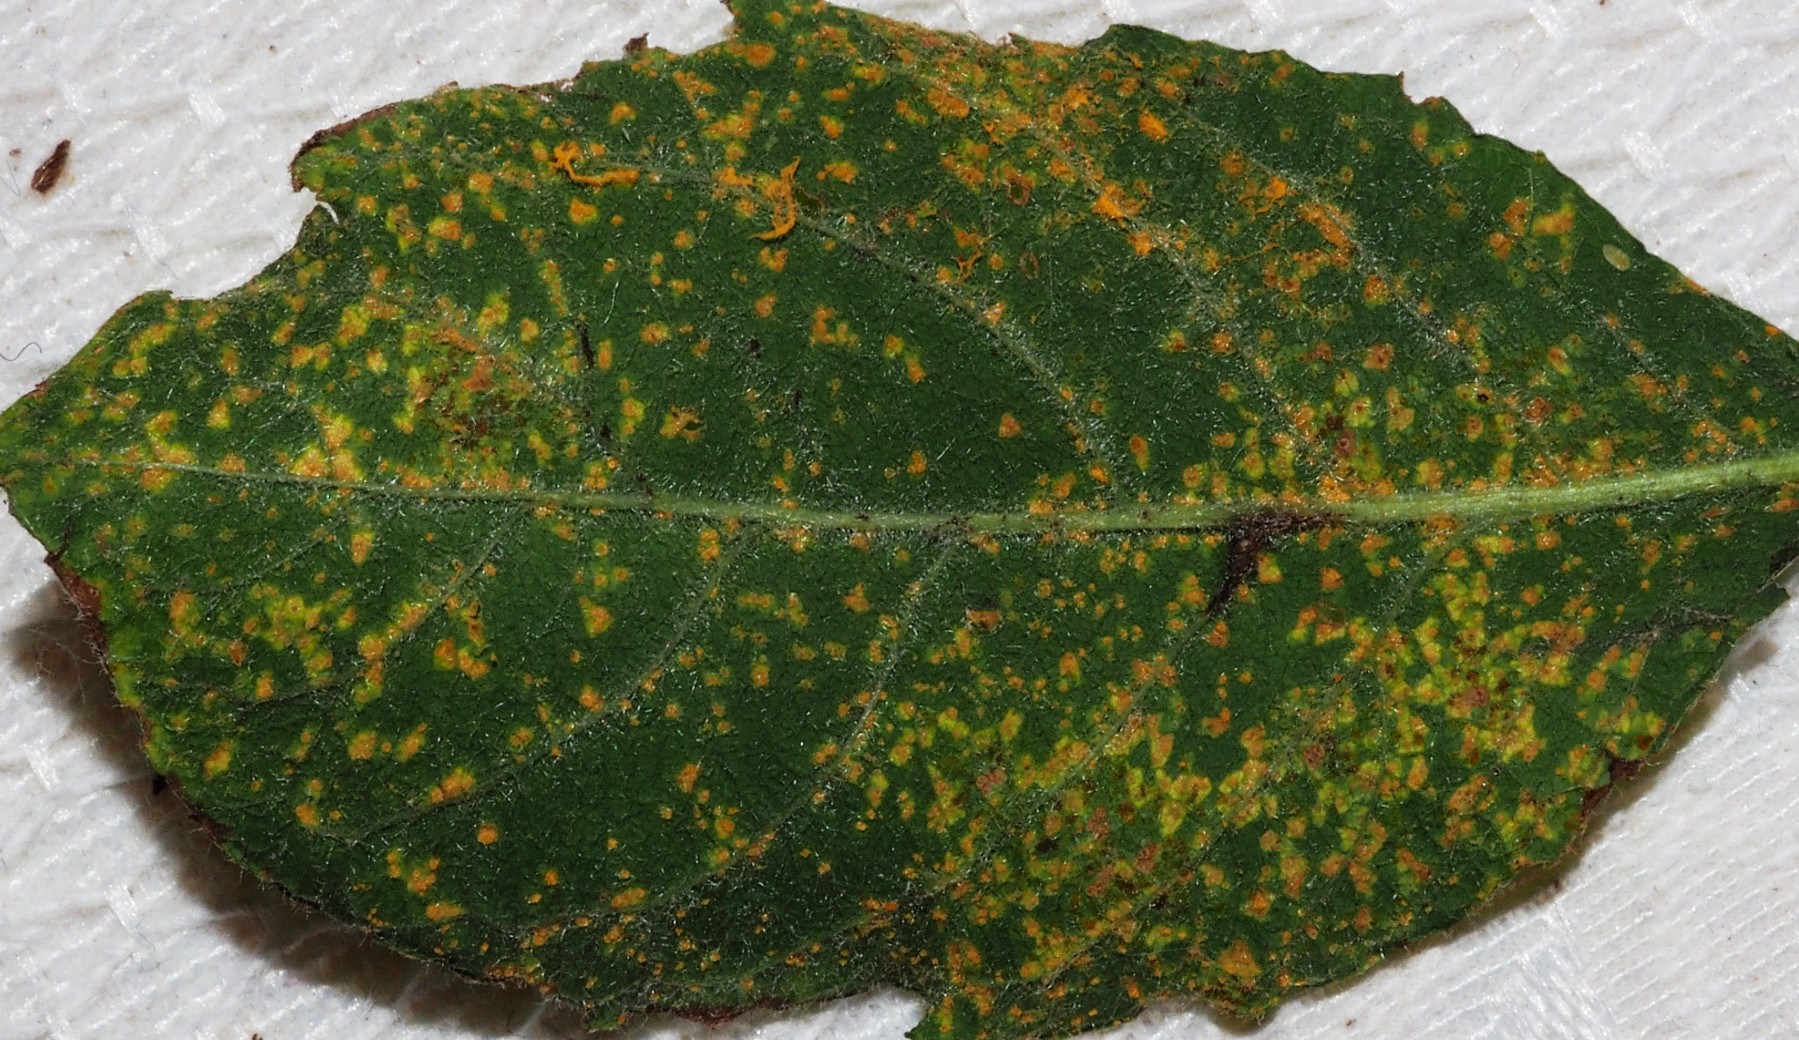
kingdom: Fungi
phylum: Basidiomycota
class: Pucciniomycetes
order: Pucciniales
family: Melampsoraceae
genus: Melampsora
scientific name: Melampsora epitea
